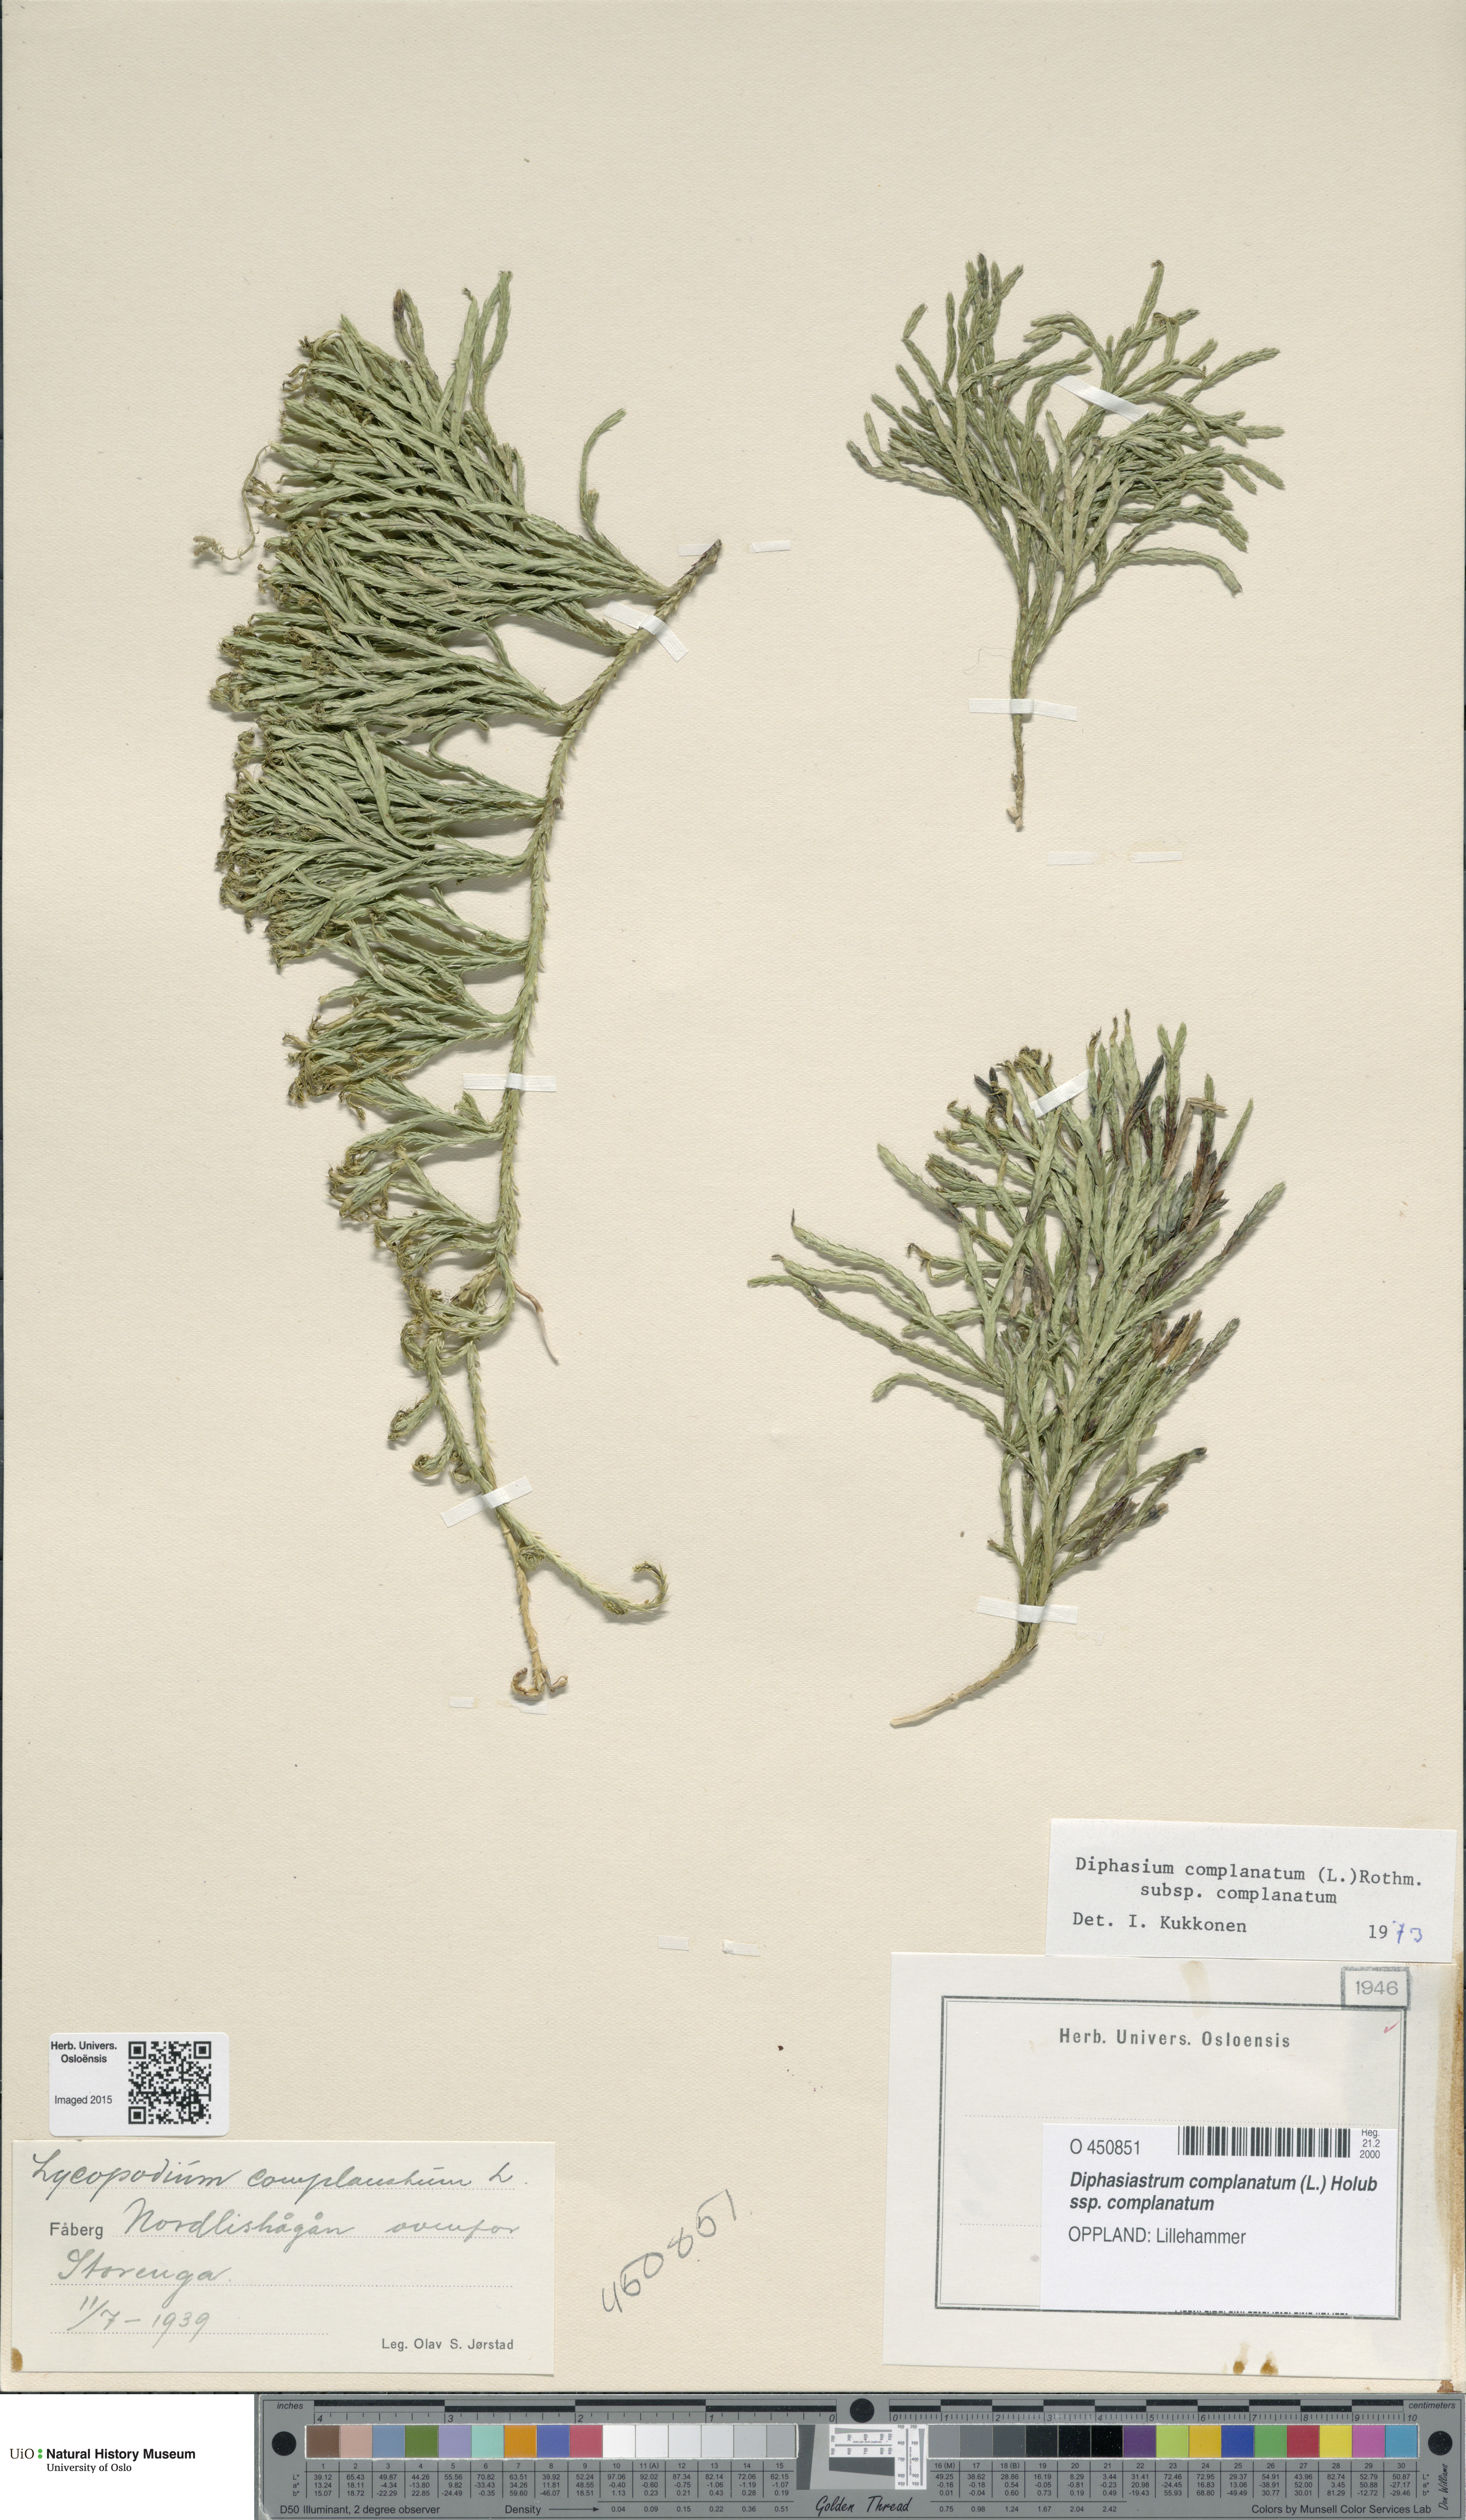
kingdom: Plantae
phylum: Tracheophyta
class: Lycopodiopsida
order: Lycopodiales
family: Lycopodiaceae
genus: Diphasiastrum
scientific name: Diphasiastrum complanatum
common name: Northern running-pine
